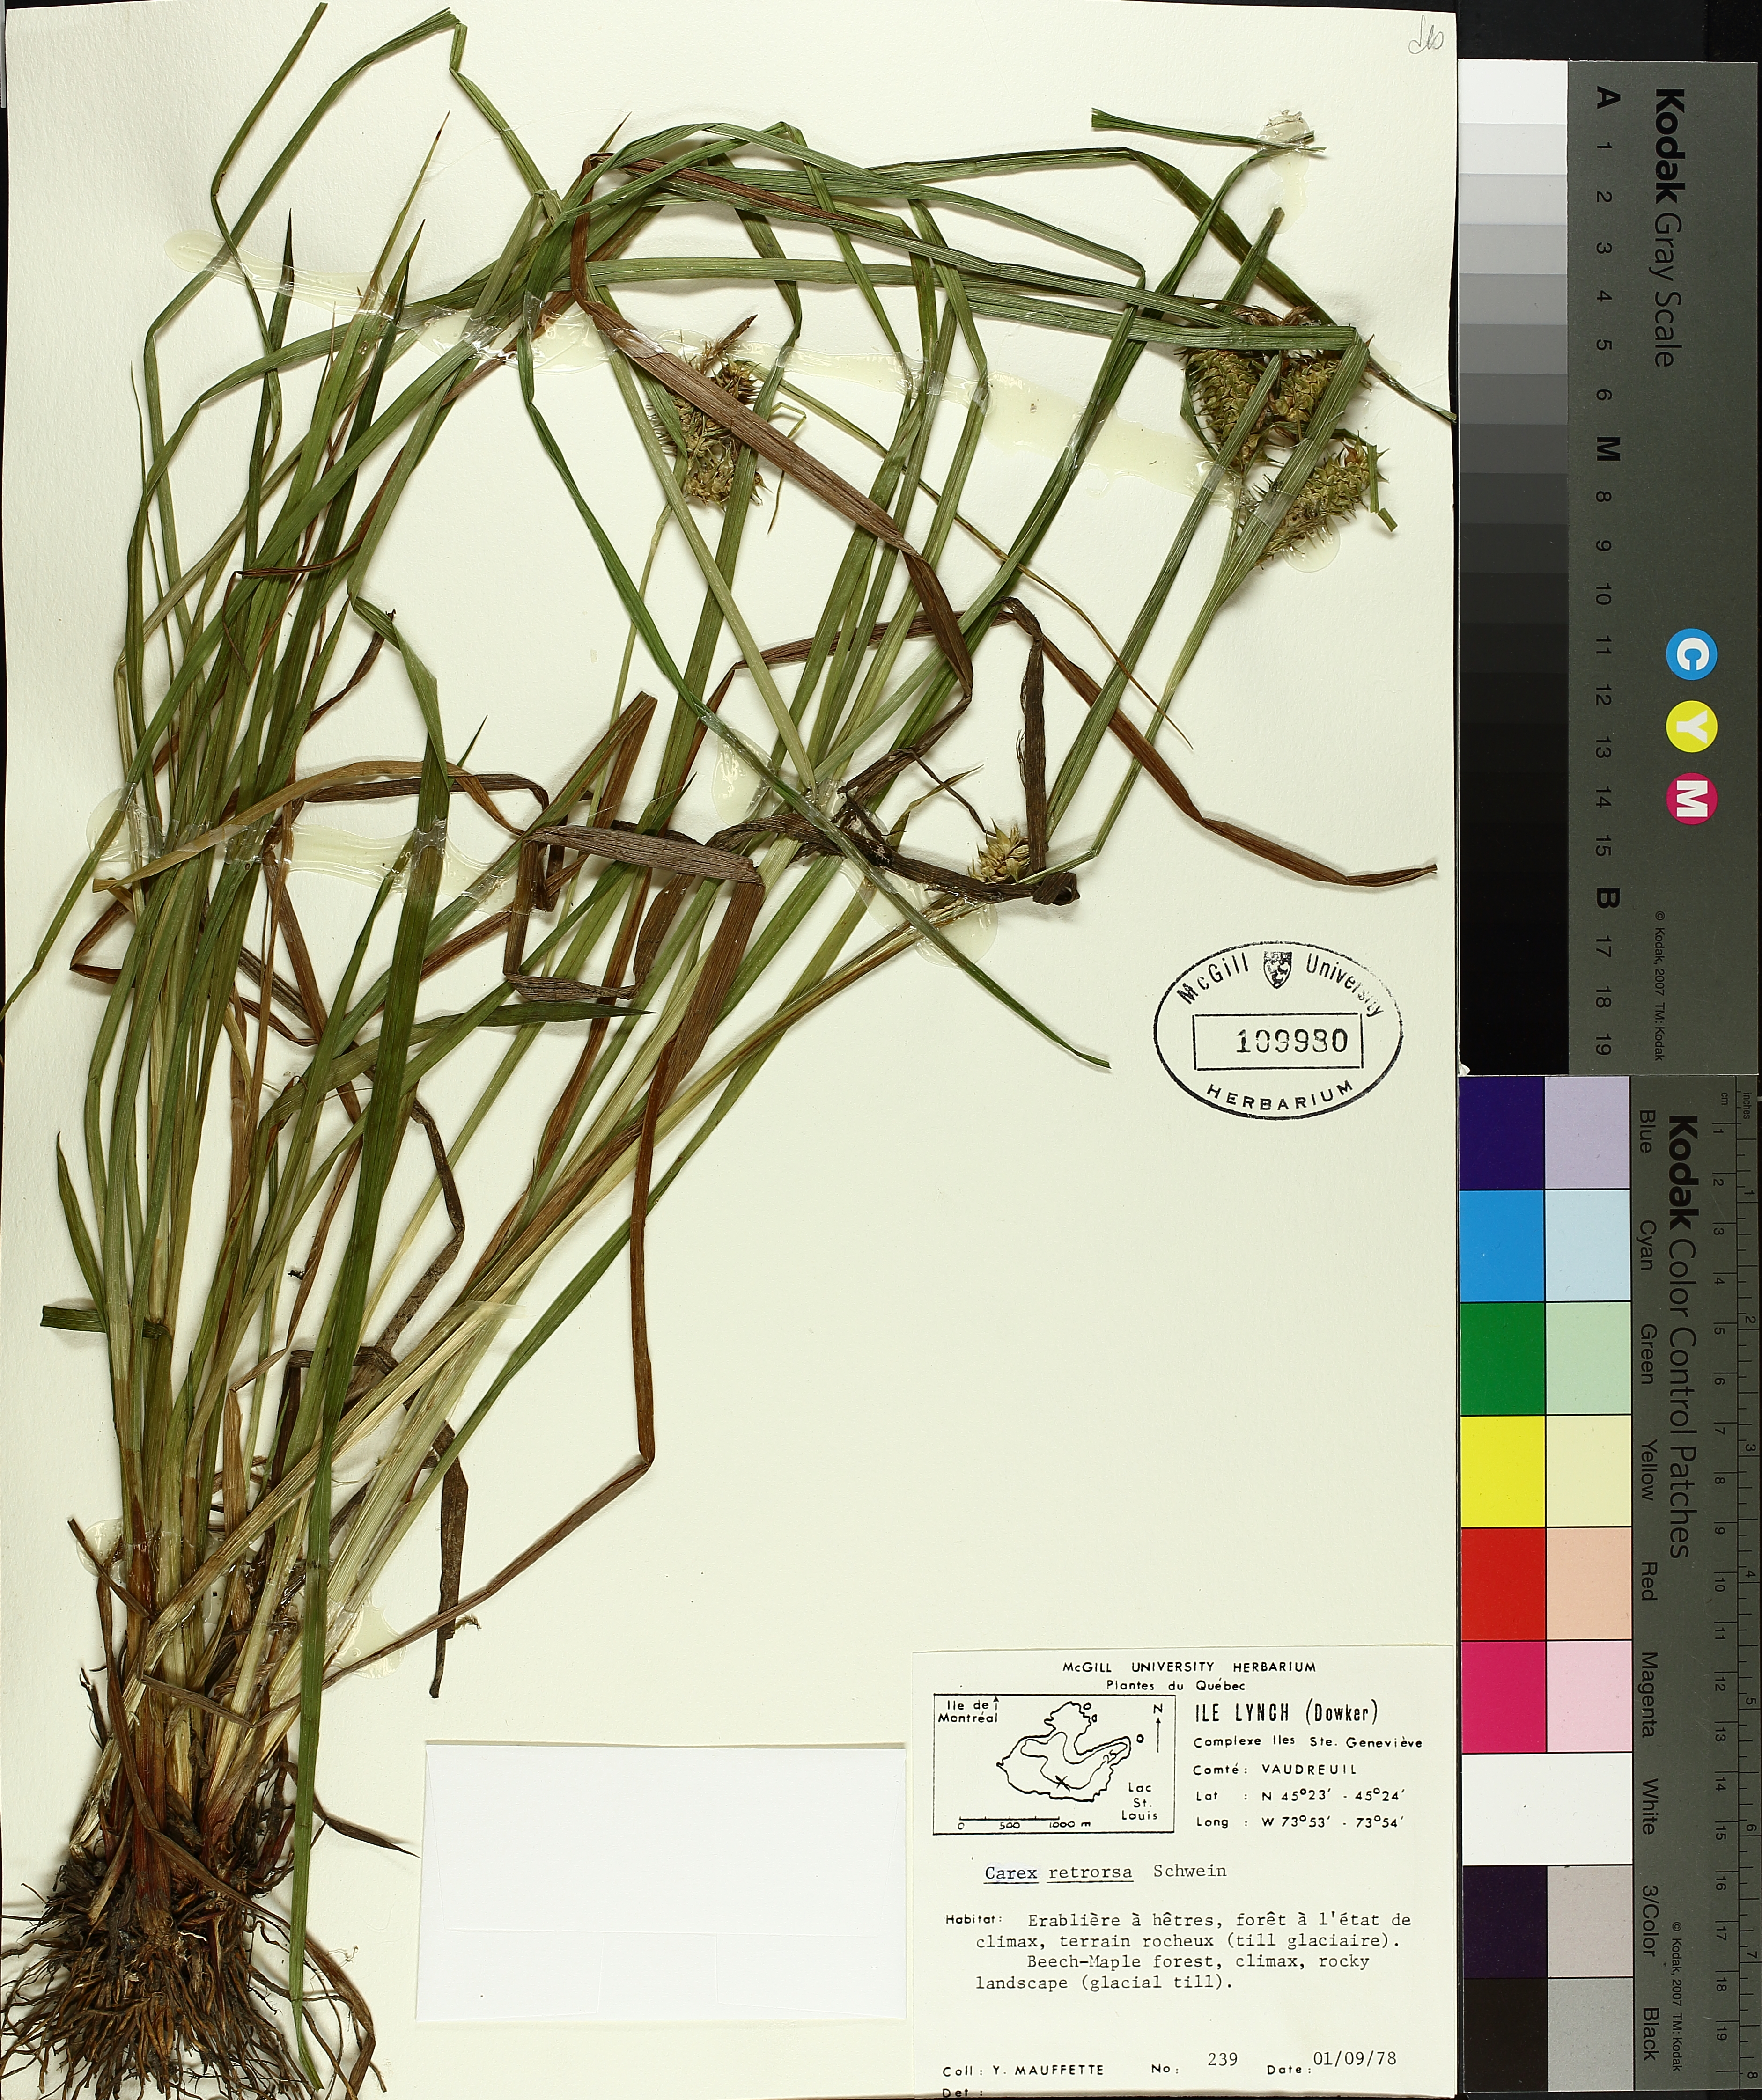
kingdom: Plantae
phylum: Tracheophyta
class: Liliopsida
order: Poales
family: Cyperaceae
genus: Carex
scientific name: Carex retrorsa
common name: Knot-sheath sedge
